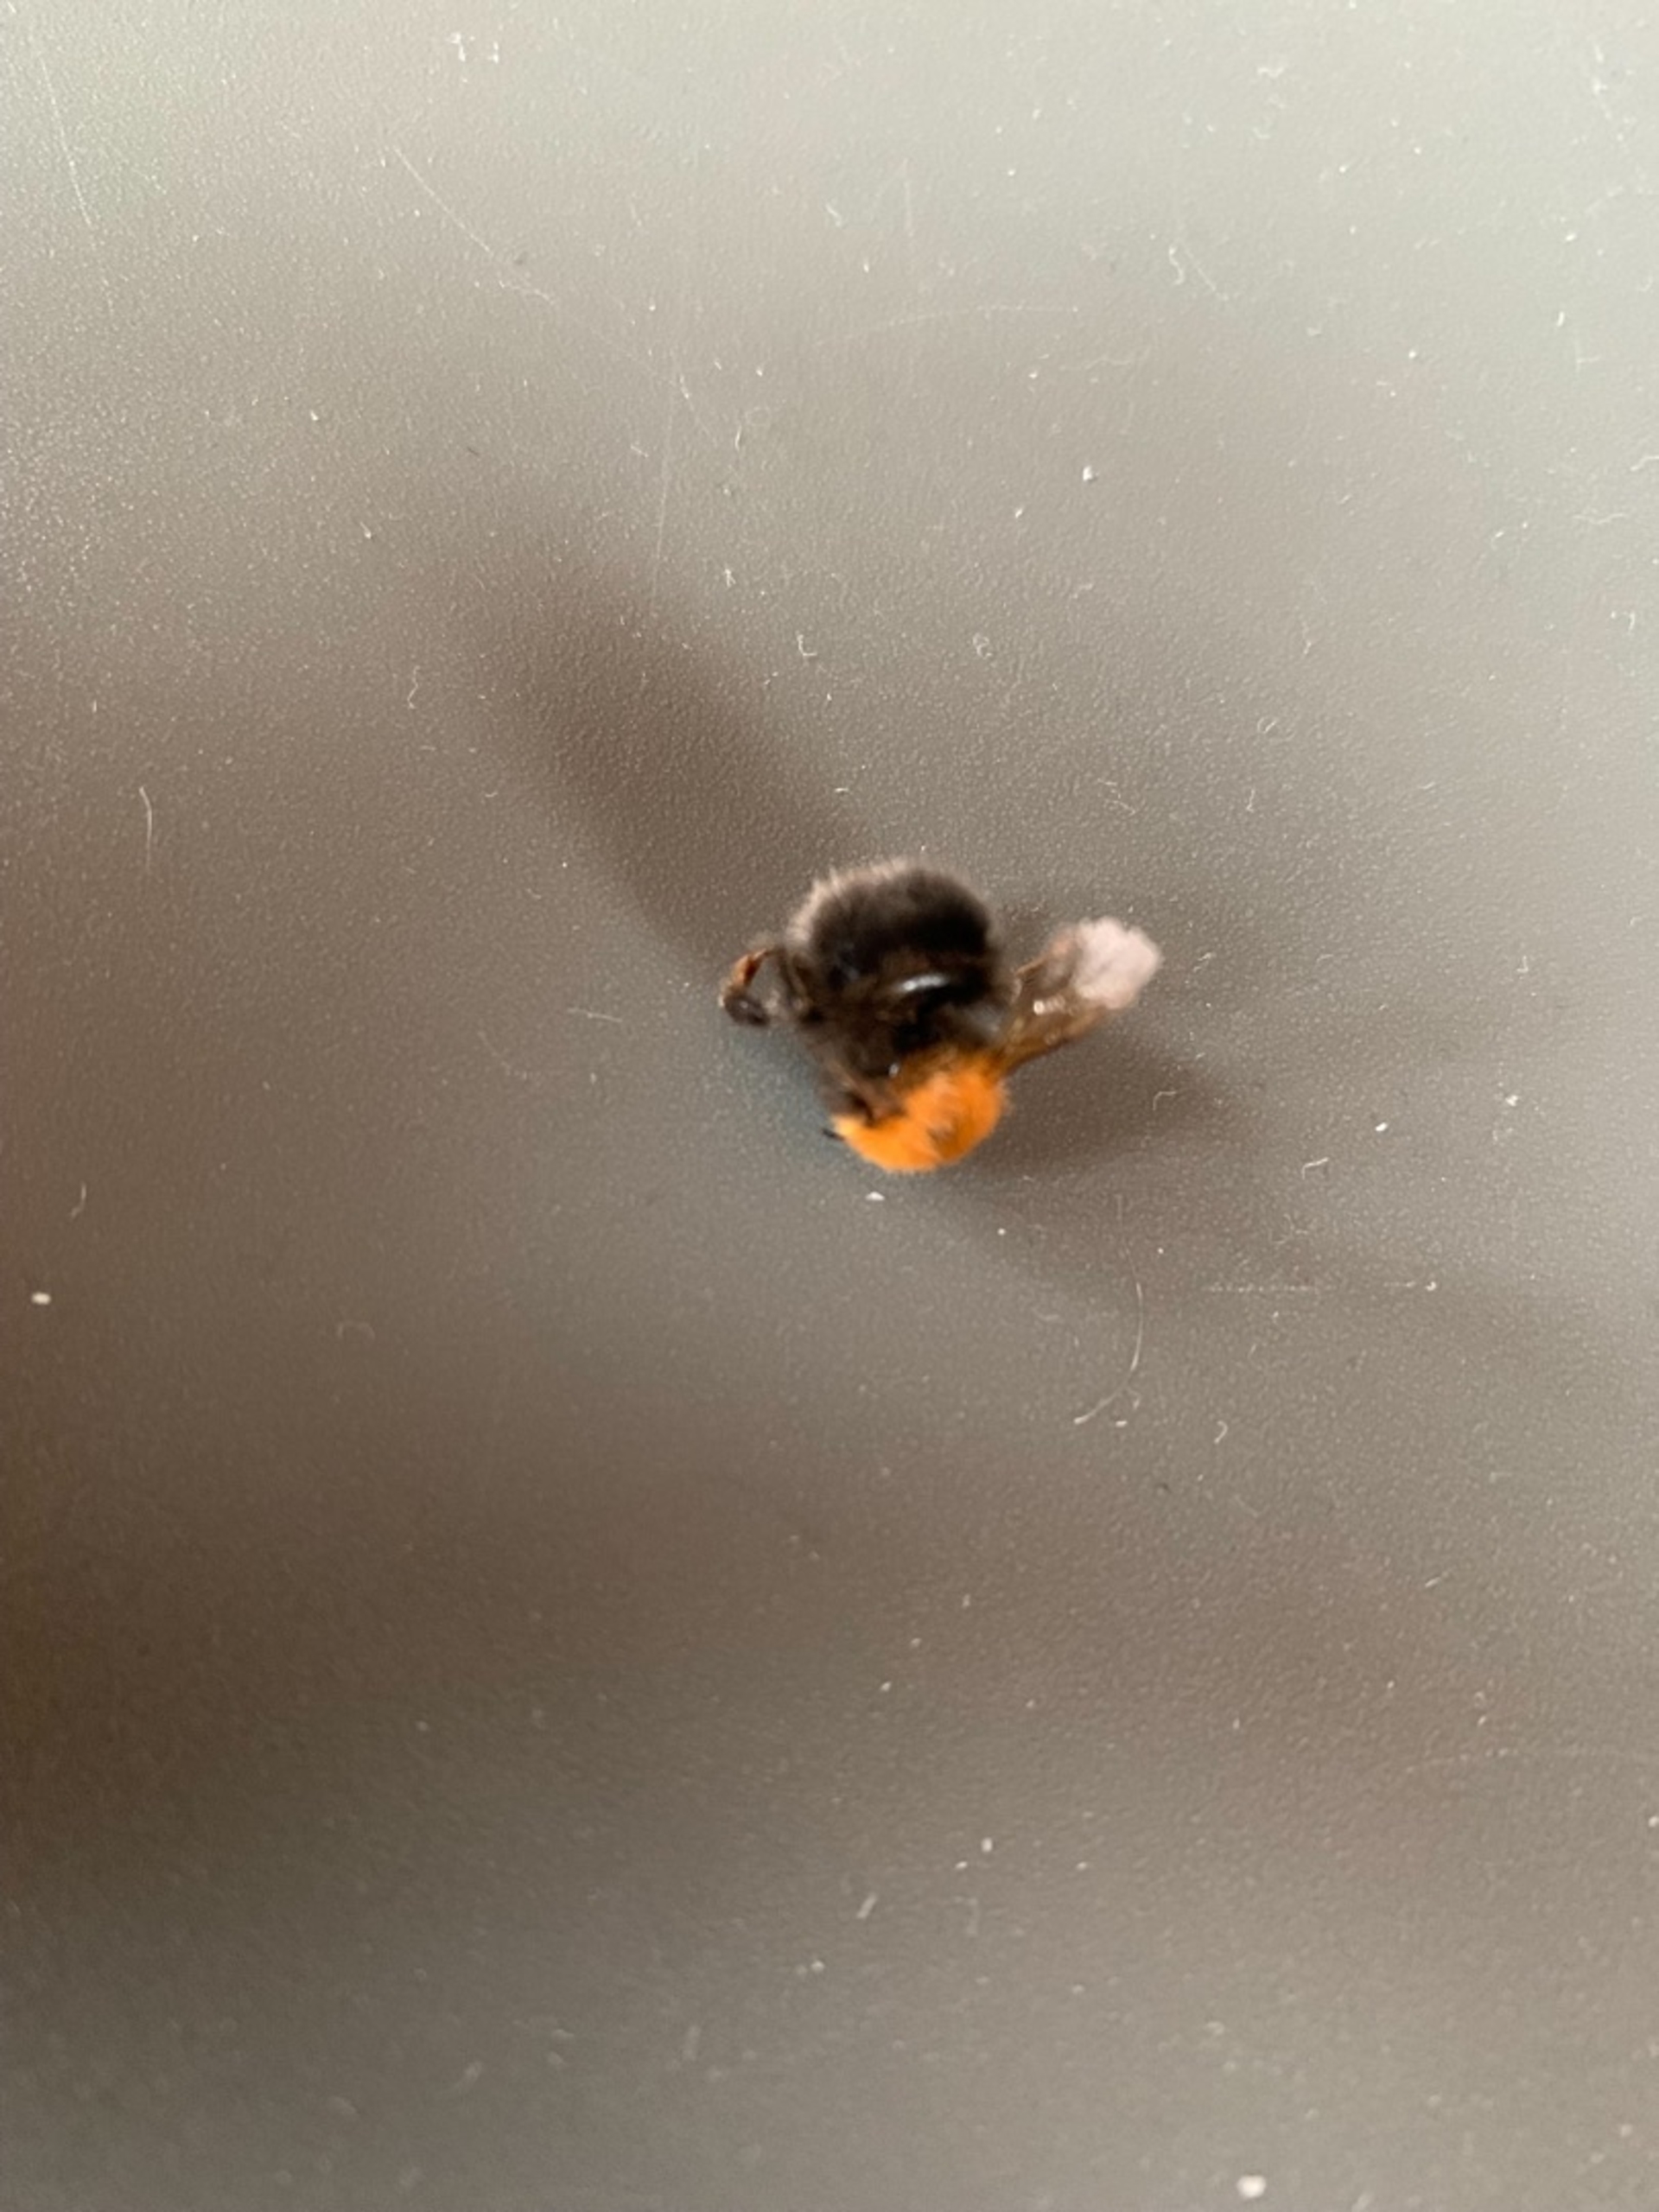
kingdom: Animalia
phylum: Arthropoda
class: Insecta
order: Hymenoptera
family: Apidae
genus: Bombus
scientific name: Bombus hypnorum
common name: Hushumle
